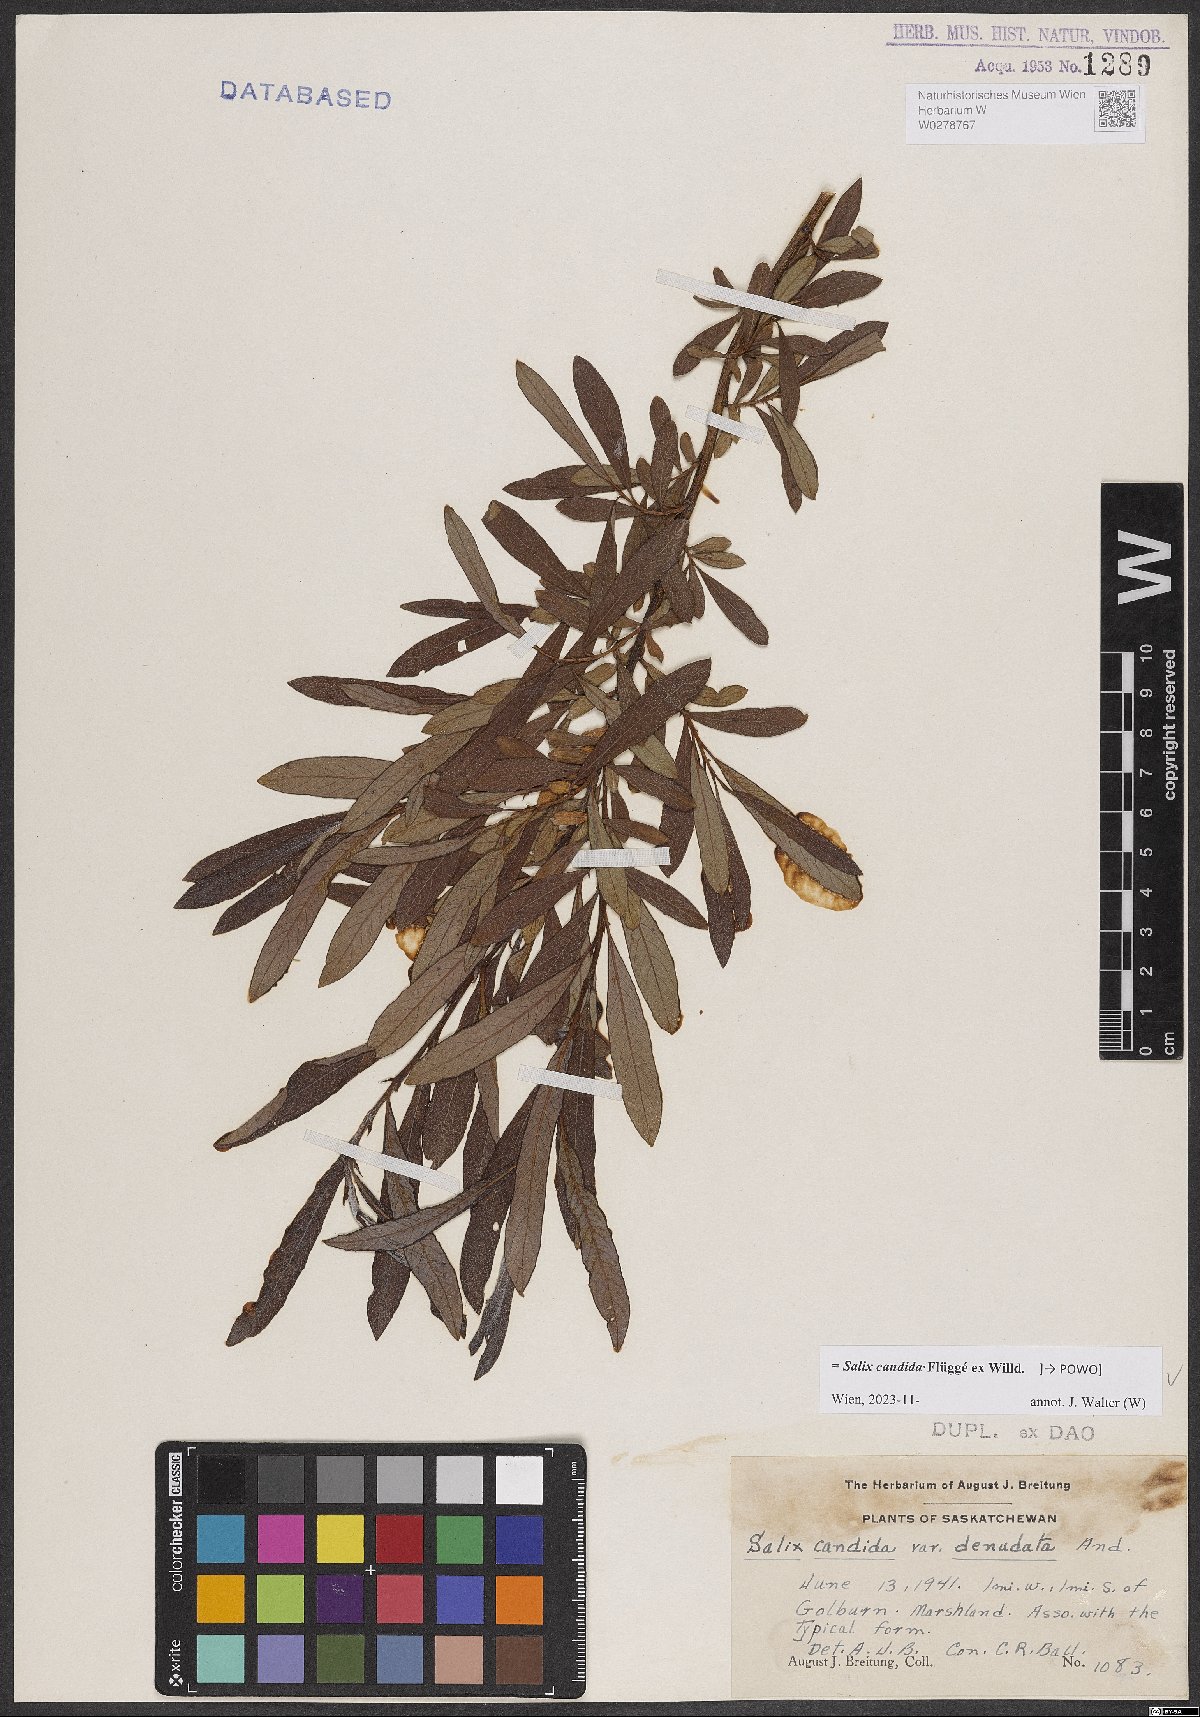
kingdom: Plantae
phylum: Tracheophyta
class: Magnoliopsida
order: Malpighiales
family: Salicaceae
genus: Salix
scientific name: Salix candida
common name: Hoary willow
